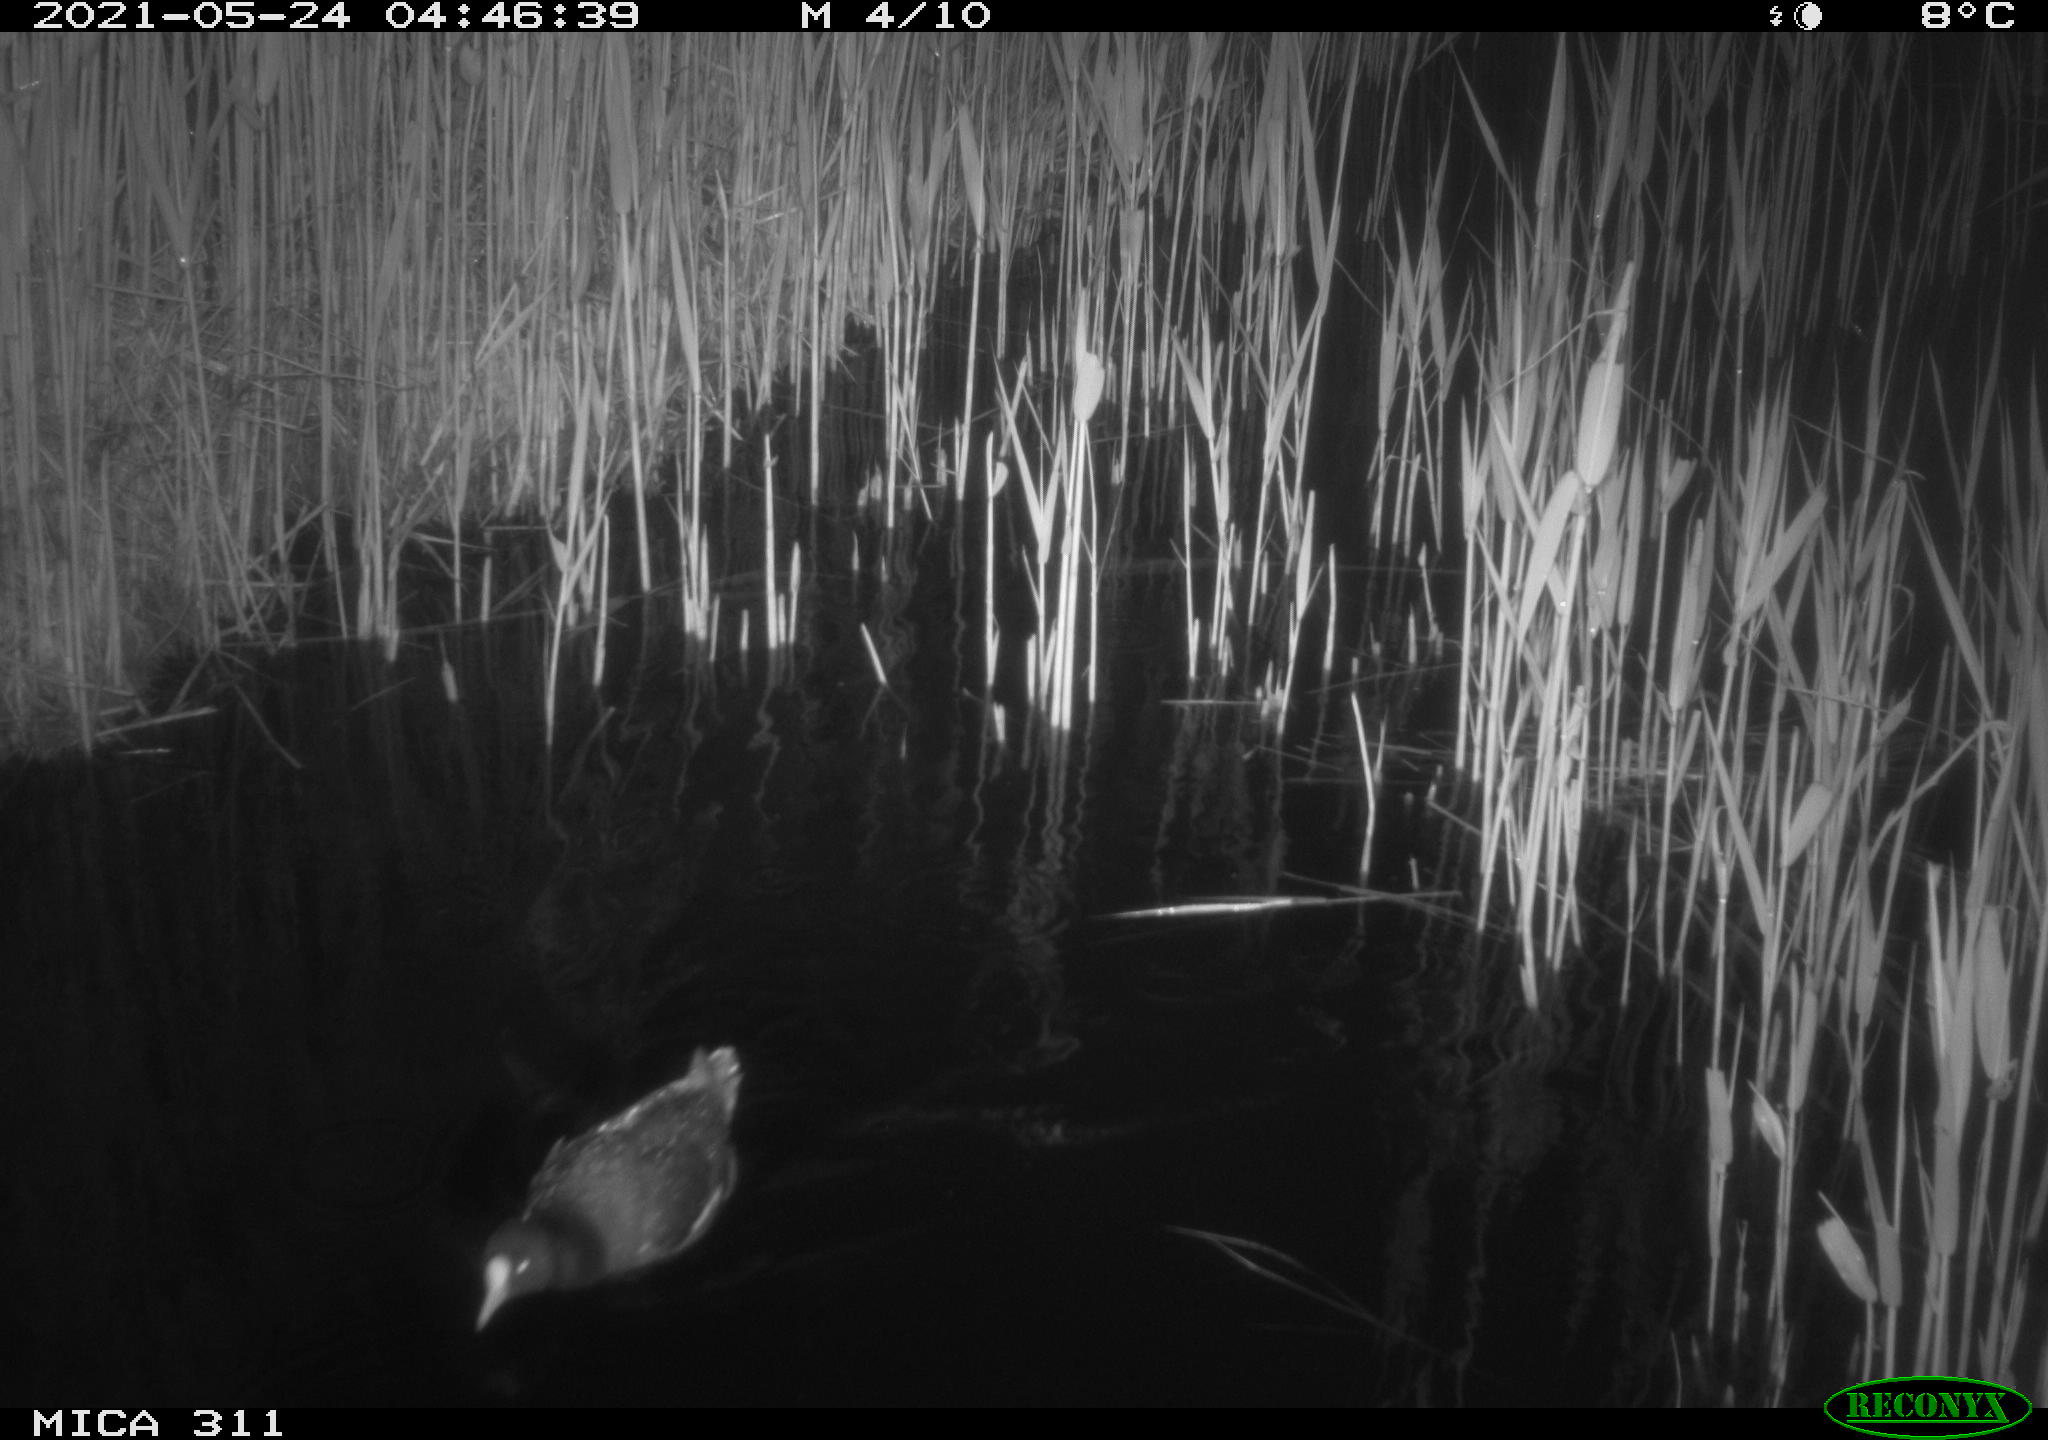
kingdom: Animalia
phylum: Chordata
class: Aves
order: Gruiformes
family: Rallidae
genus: Gallinula
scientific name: Gallinula chloropus
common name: Common moorhen
